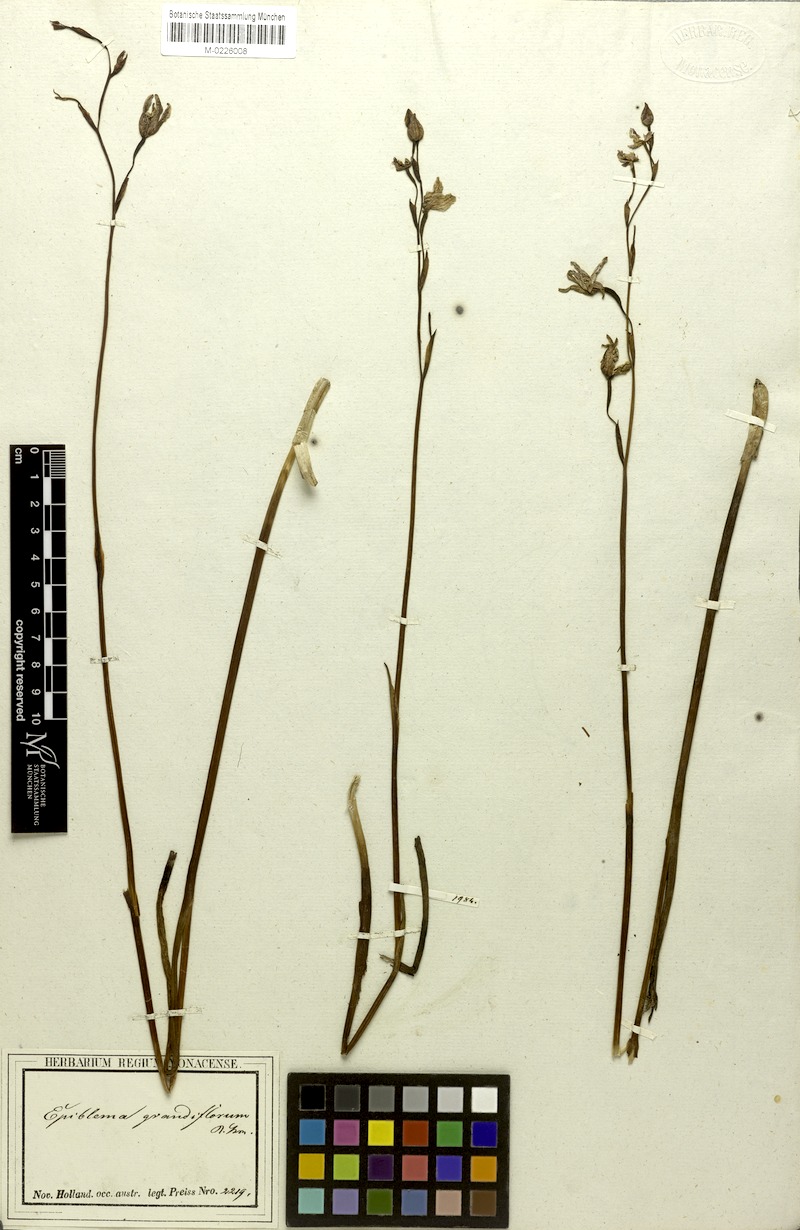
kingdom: Plantae
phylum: Tracheophyta
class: Liliopsida
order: Asparagales
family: Orchidaceae
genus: Epiblema
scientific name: Epiblema grandiflorum
